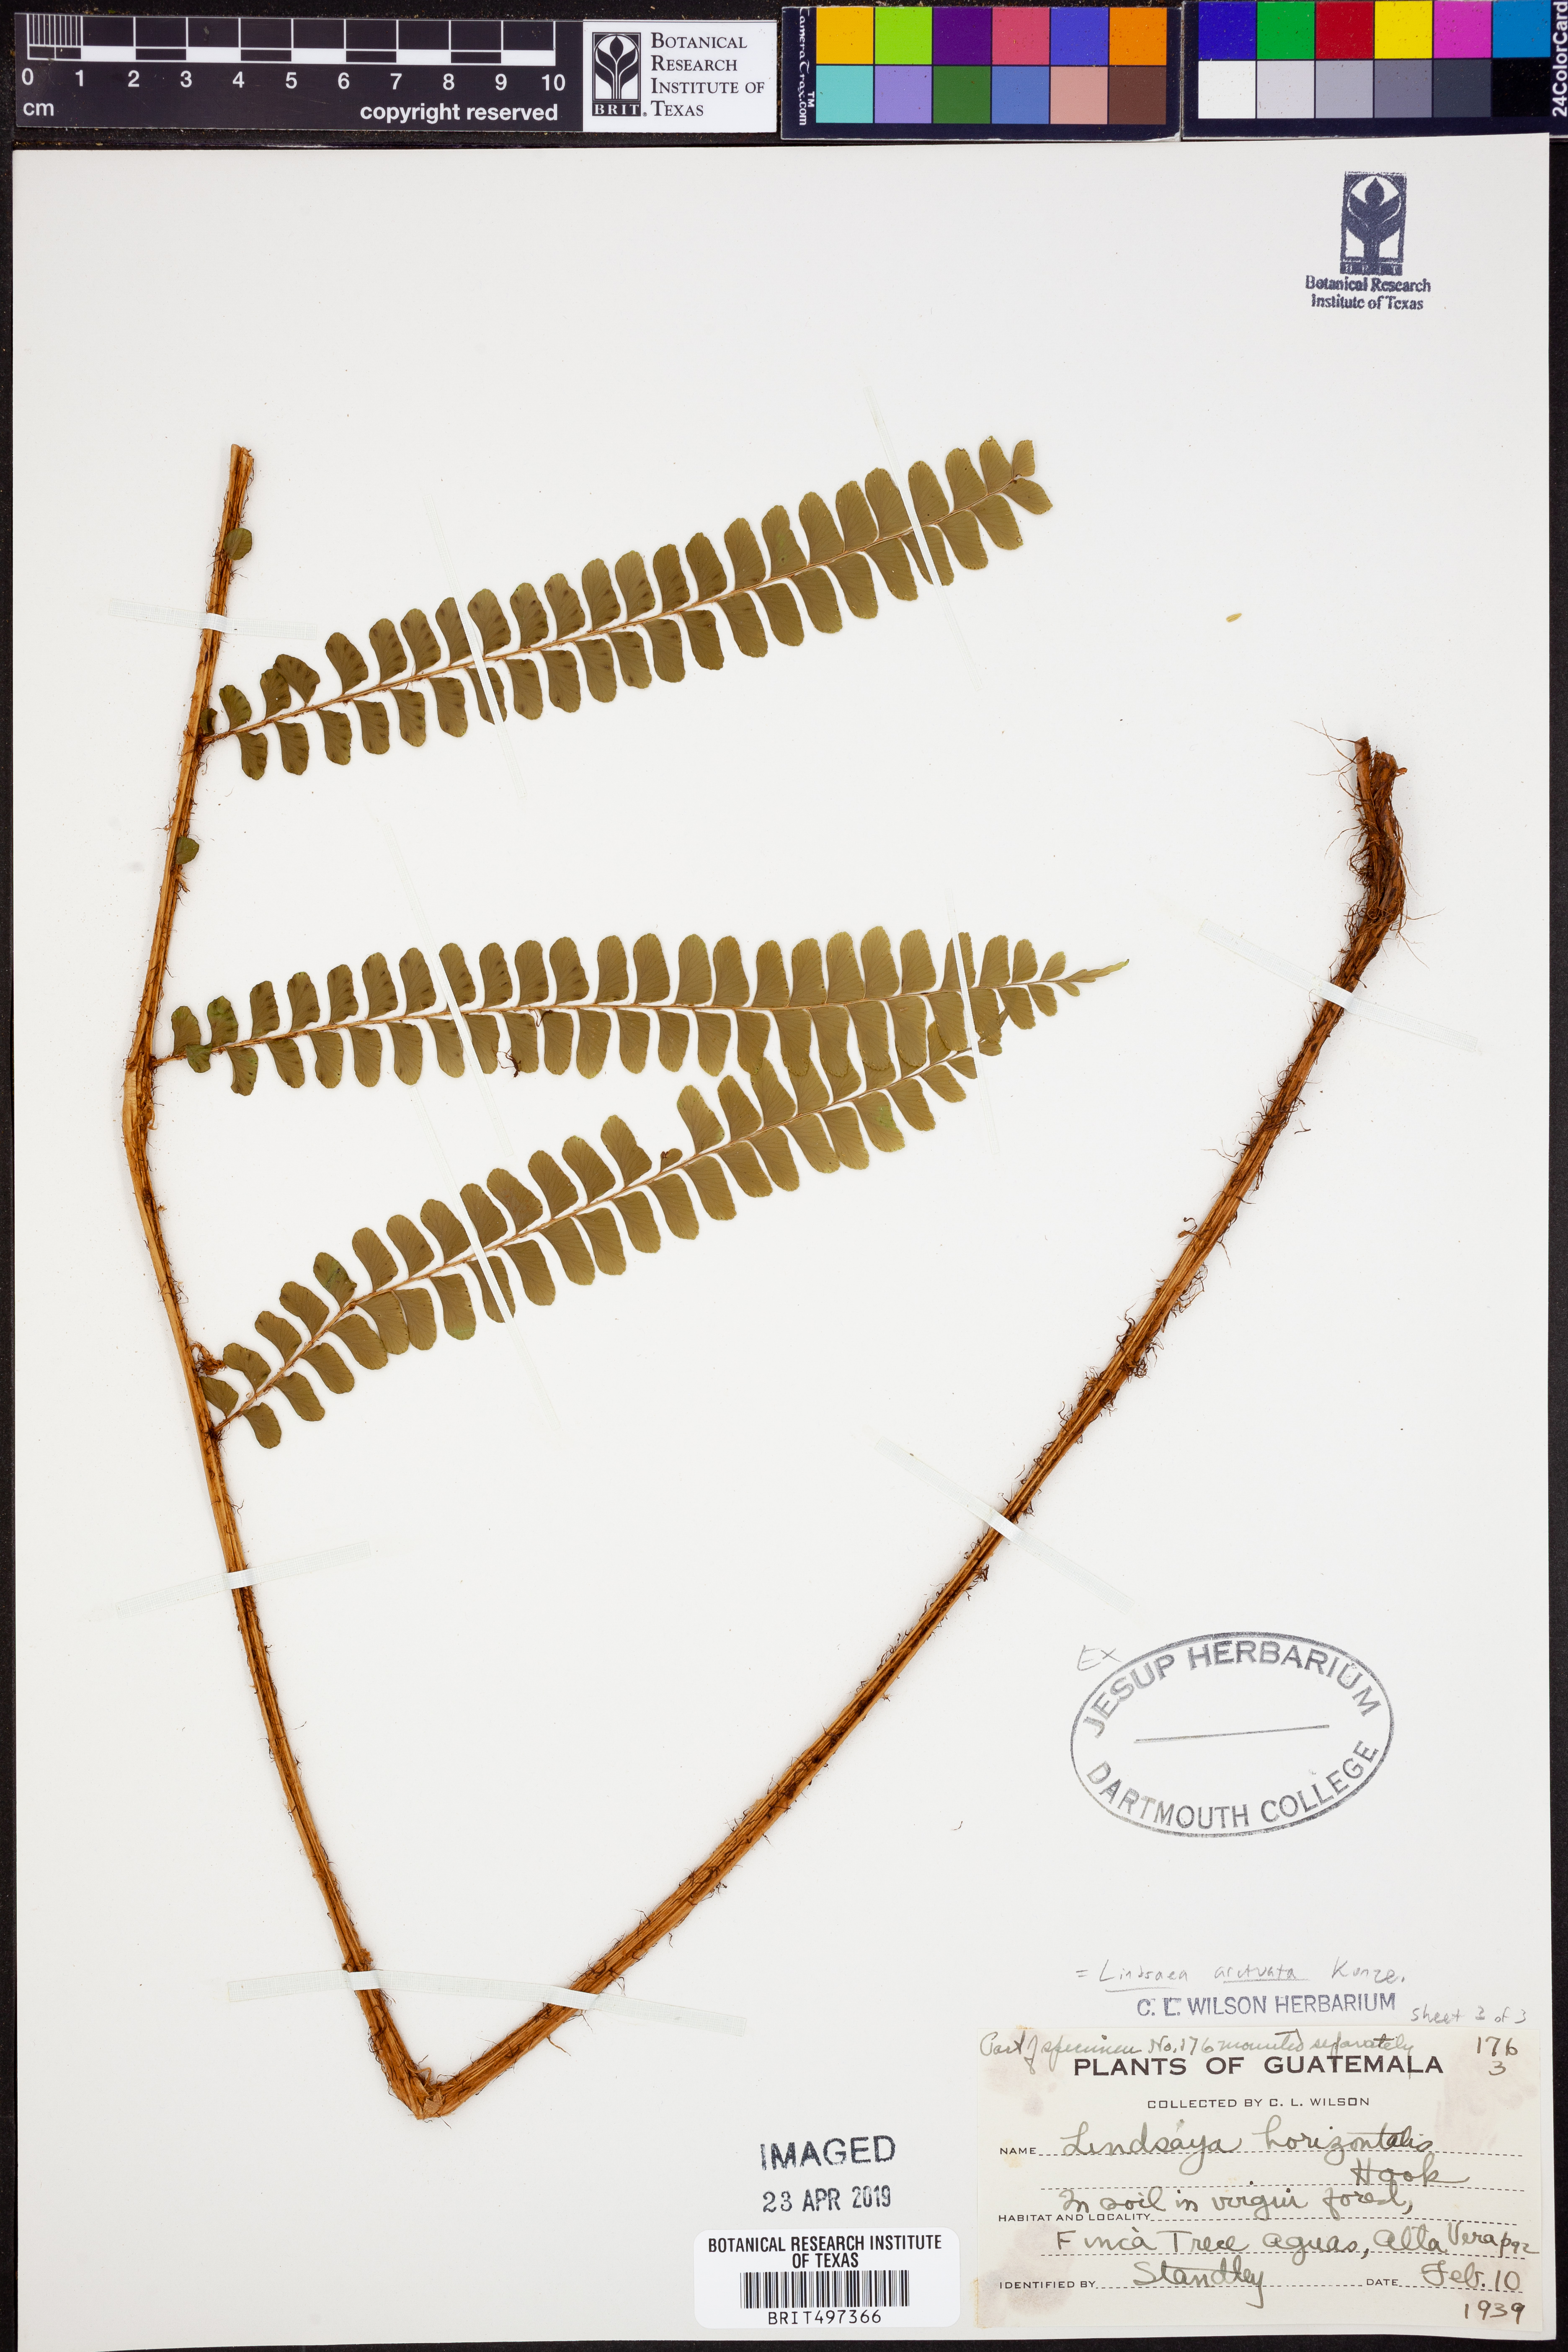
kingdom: Plantae
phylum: Tracheophyta
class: Polypodiopsida
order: Polypodiales
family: Lindsaeaceae
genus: Lindsaea
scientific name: Lindsaea arcuata
